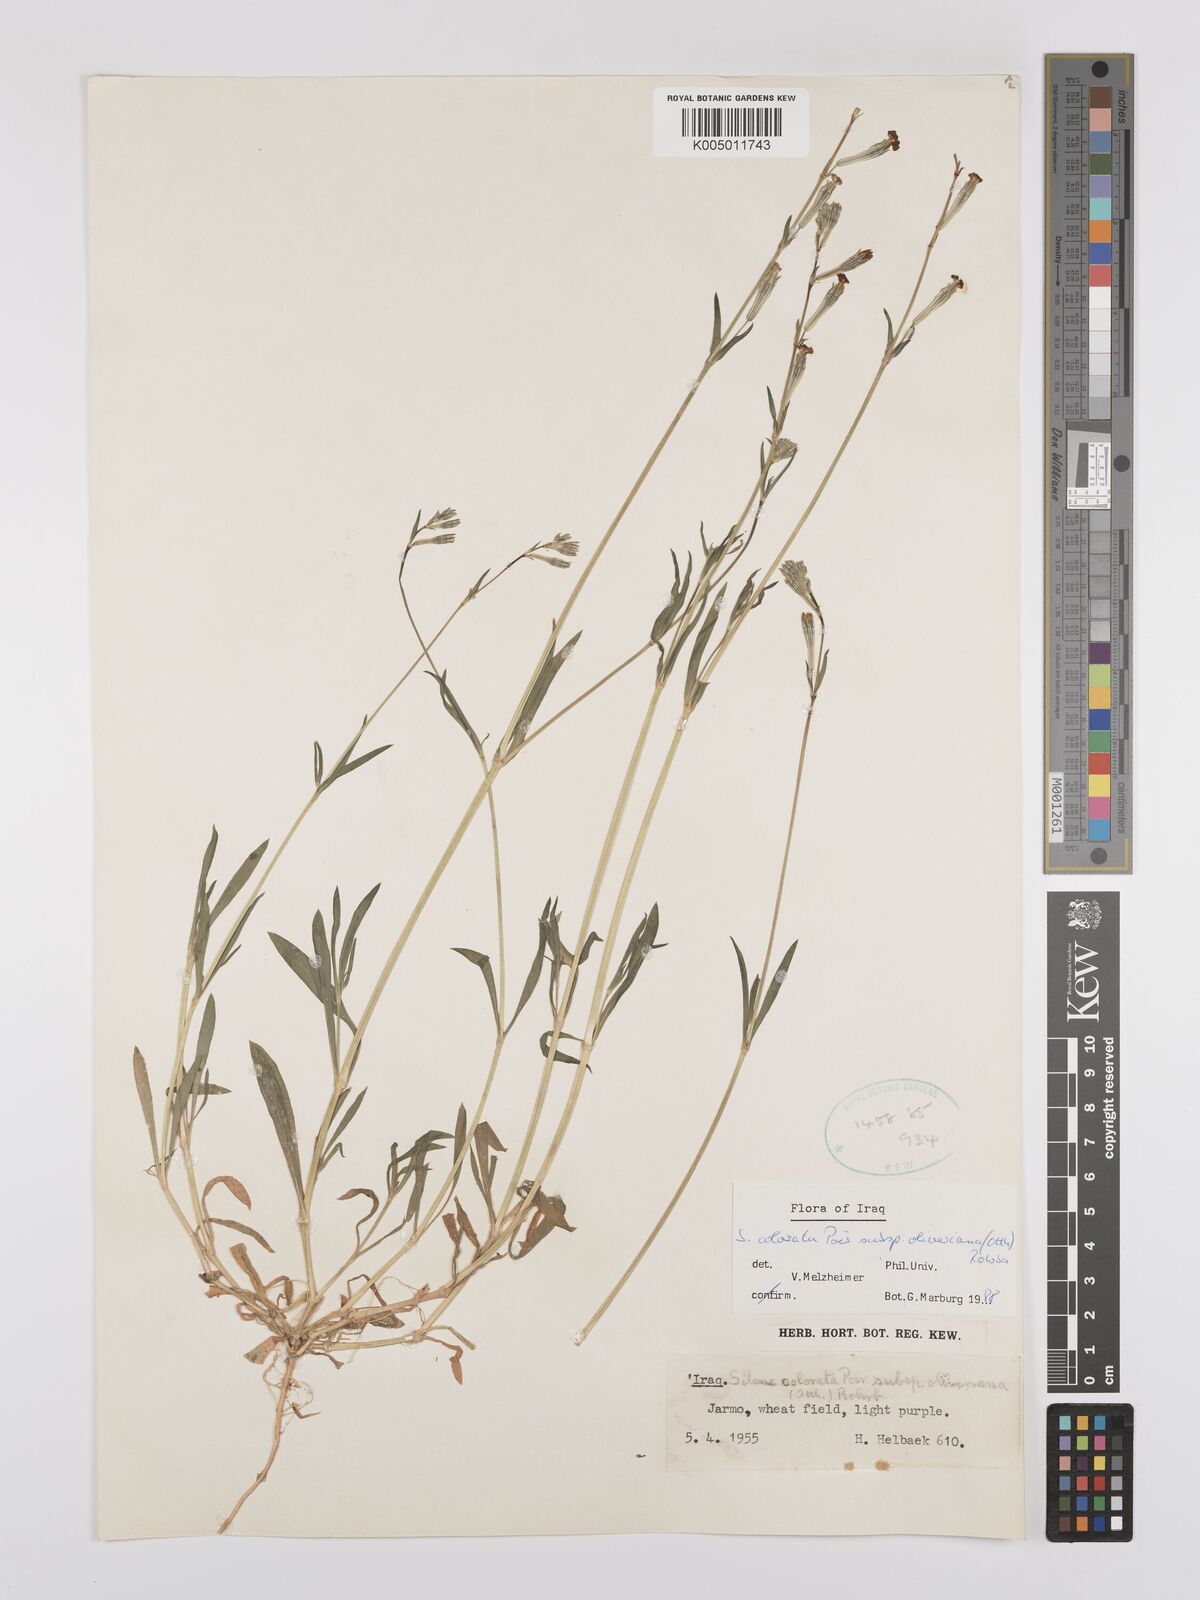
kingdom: Plantae
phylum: Tracheophyta
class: Magnoliopsida
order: Caryophyllales
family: Caryophyllaceae
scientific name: Caryophyllaceae
